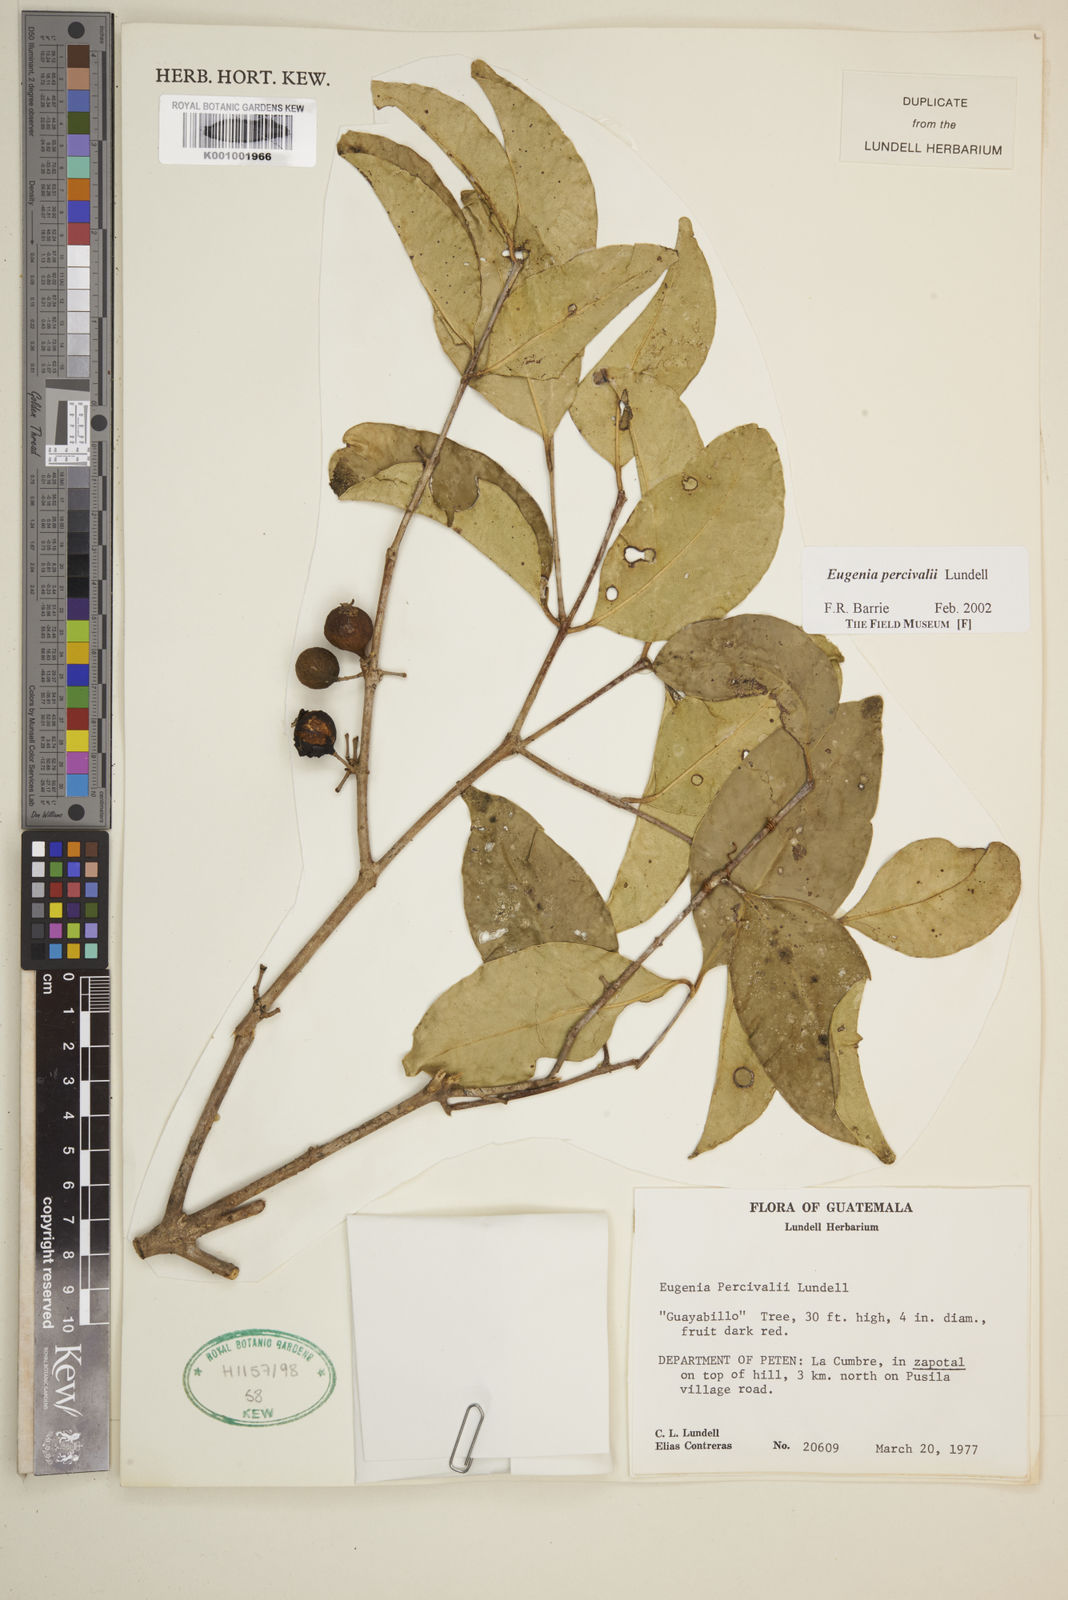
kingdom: Plantae
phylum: Tracheophyta
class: Magnoliopsida
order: Myrtales
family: Myrtaceae
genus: Eugenia
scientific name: Eugenia percivalii
